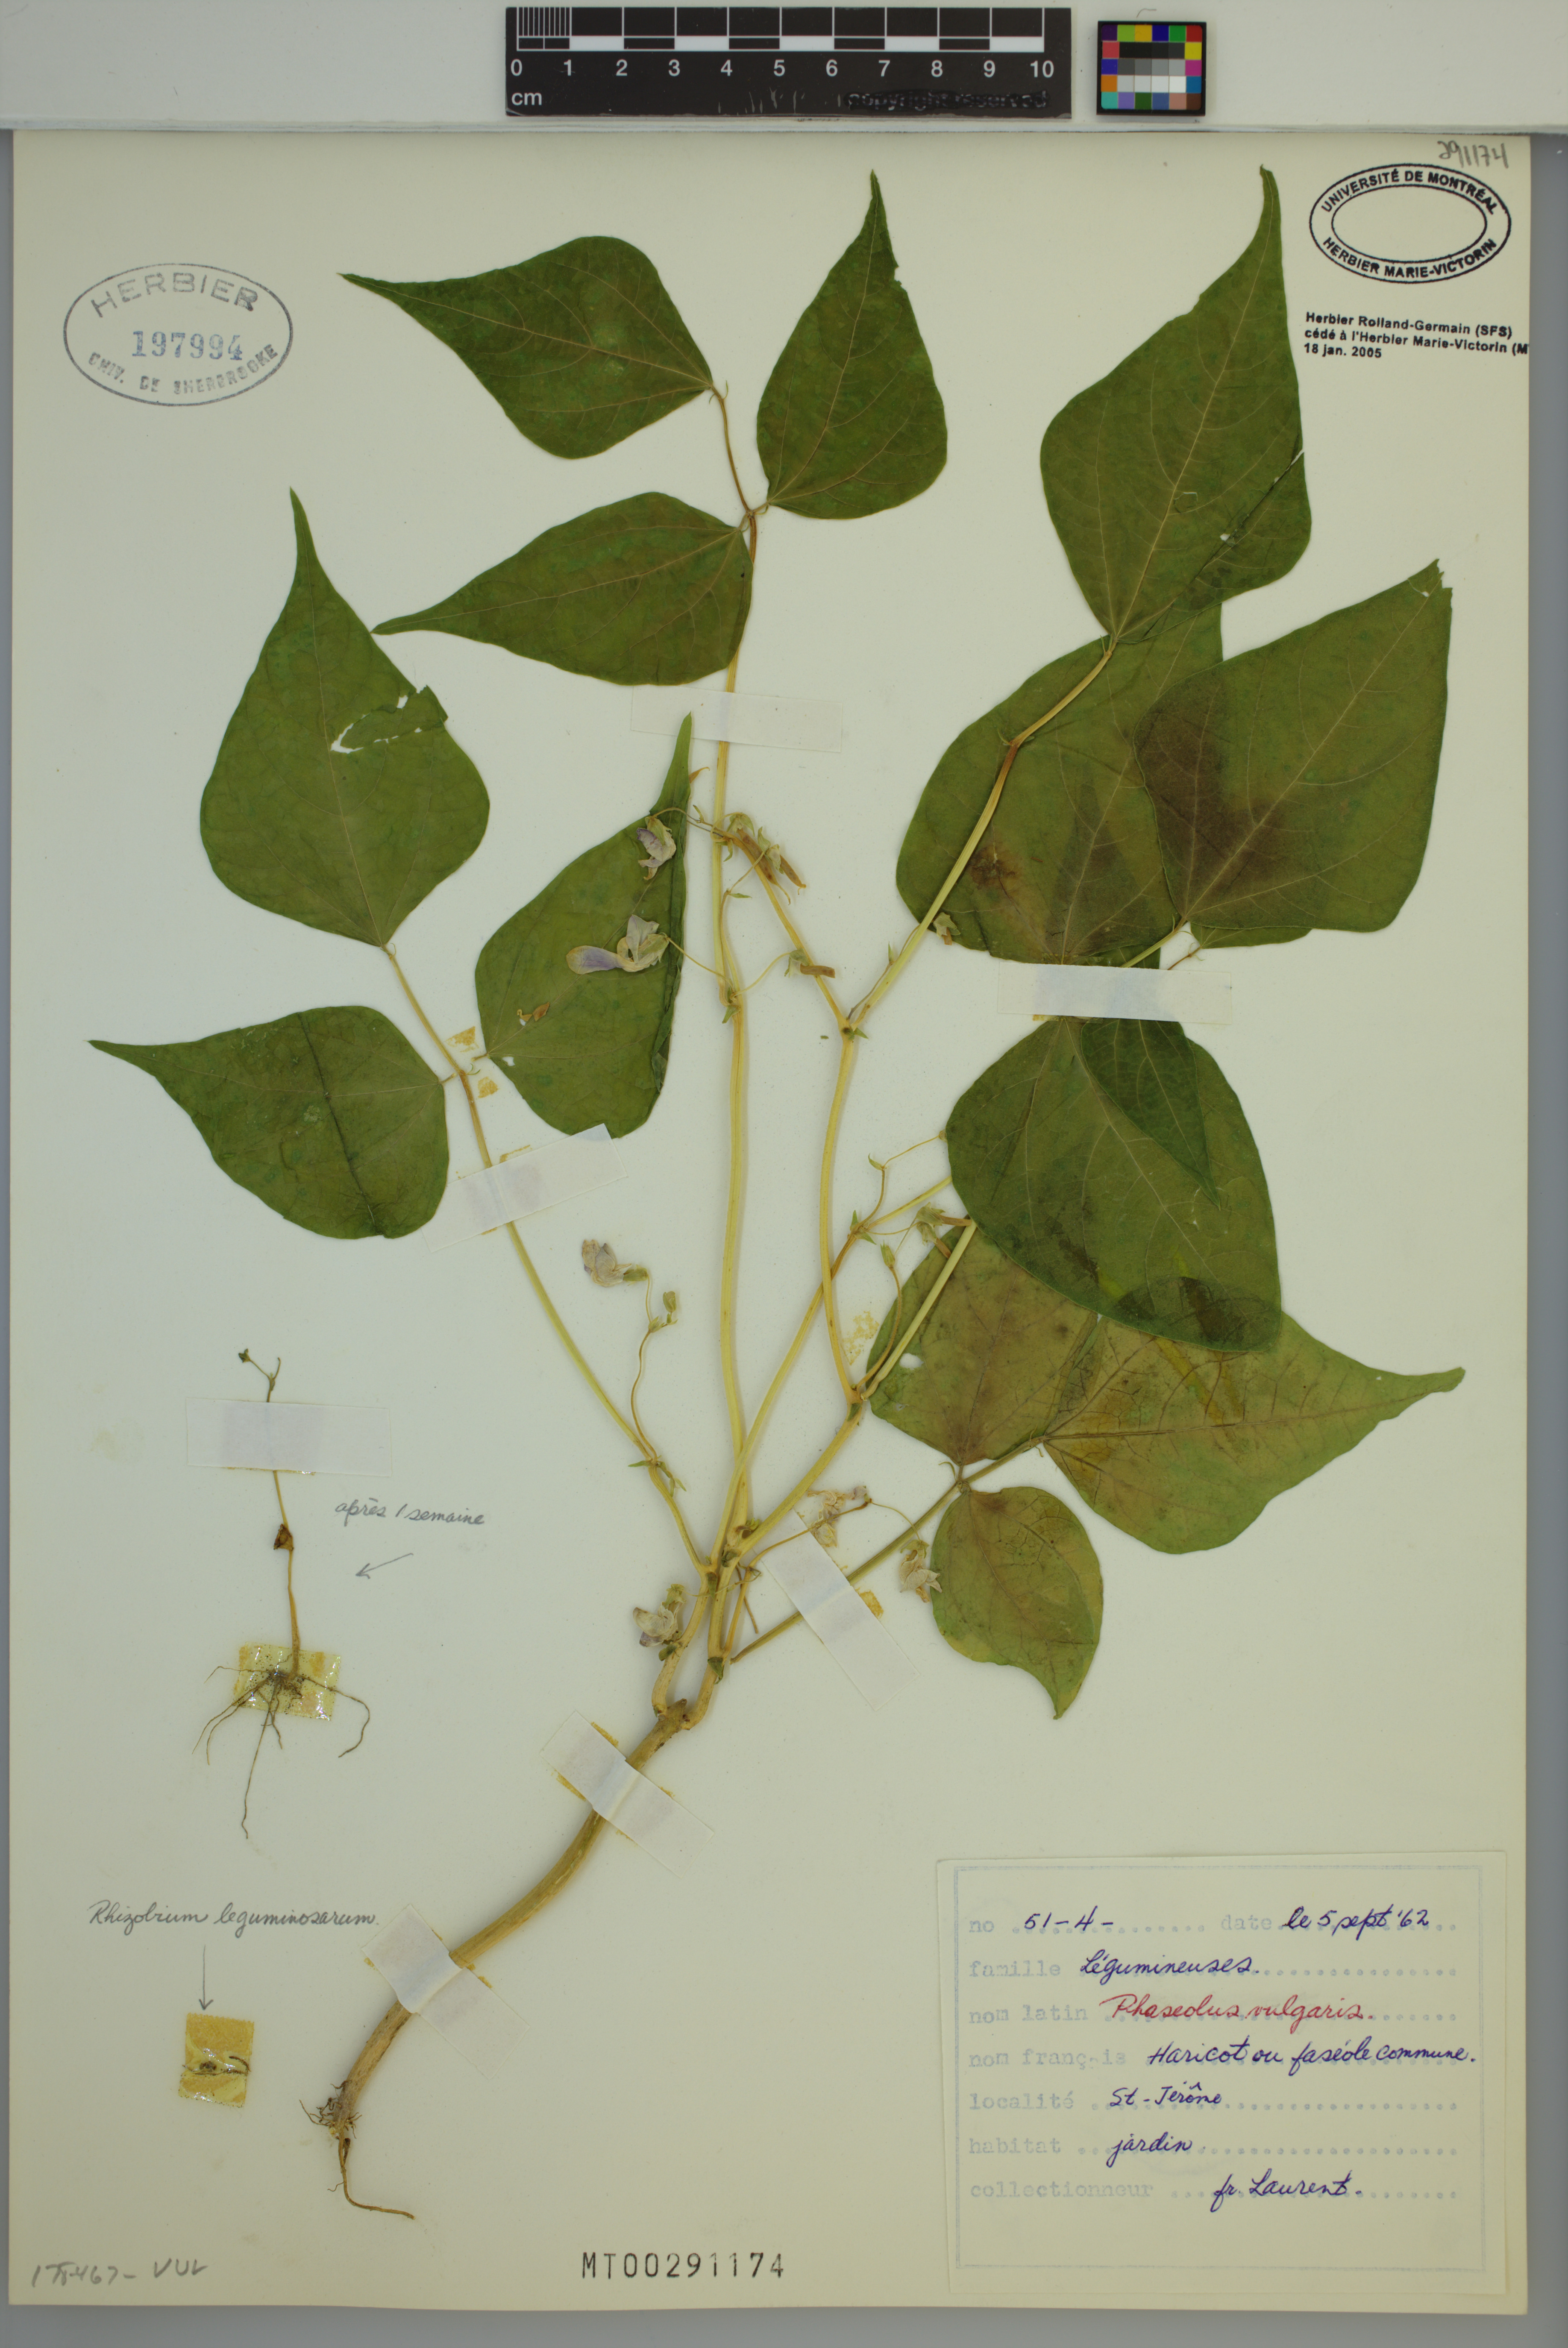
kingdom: Plantae
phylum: Tracheophyta
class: Magnoliopsida
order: Fabales
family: Fabaceae
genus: Phaseolus
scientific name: Phaseolus vulgaris
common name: Bean
